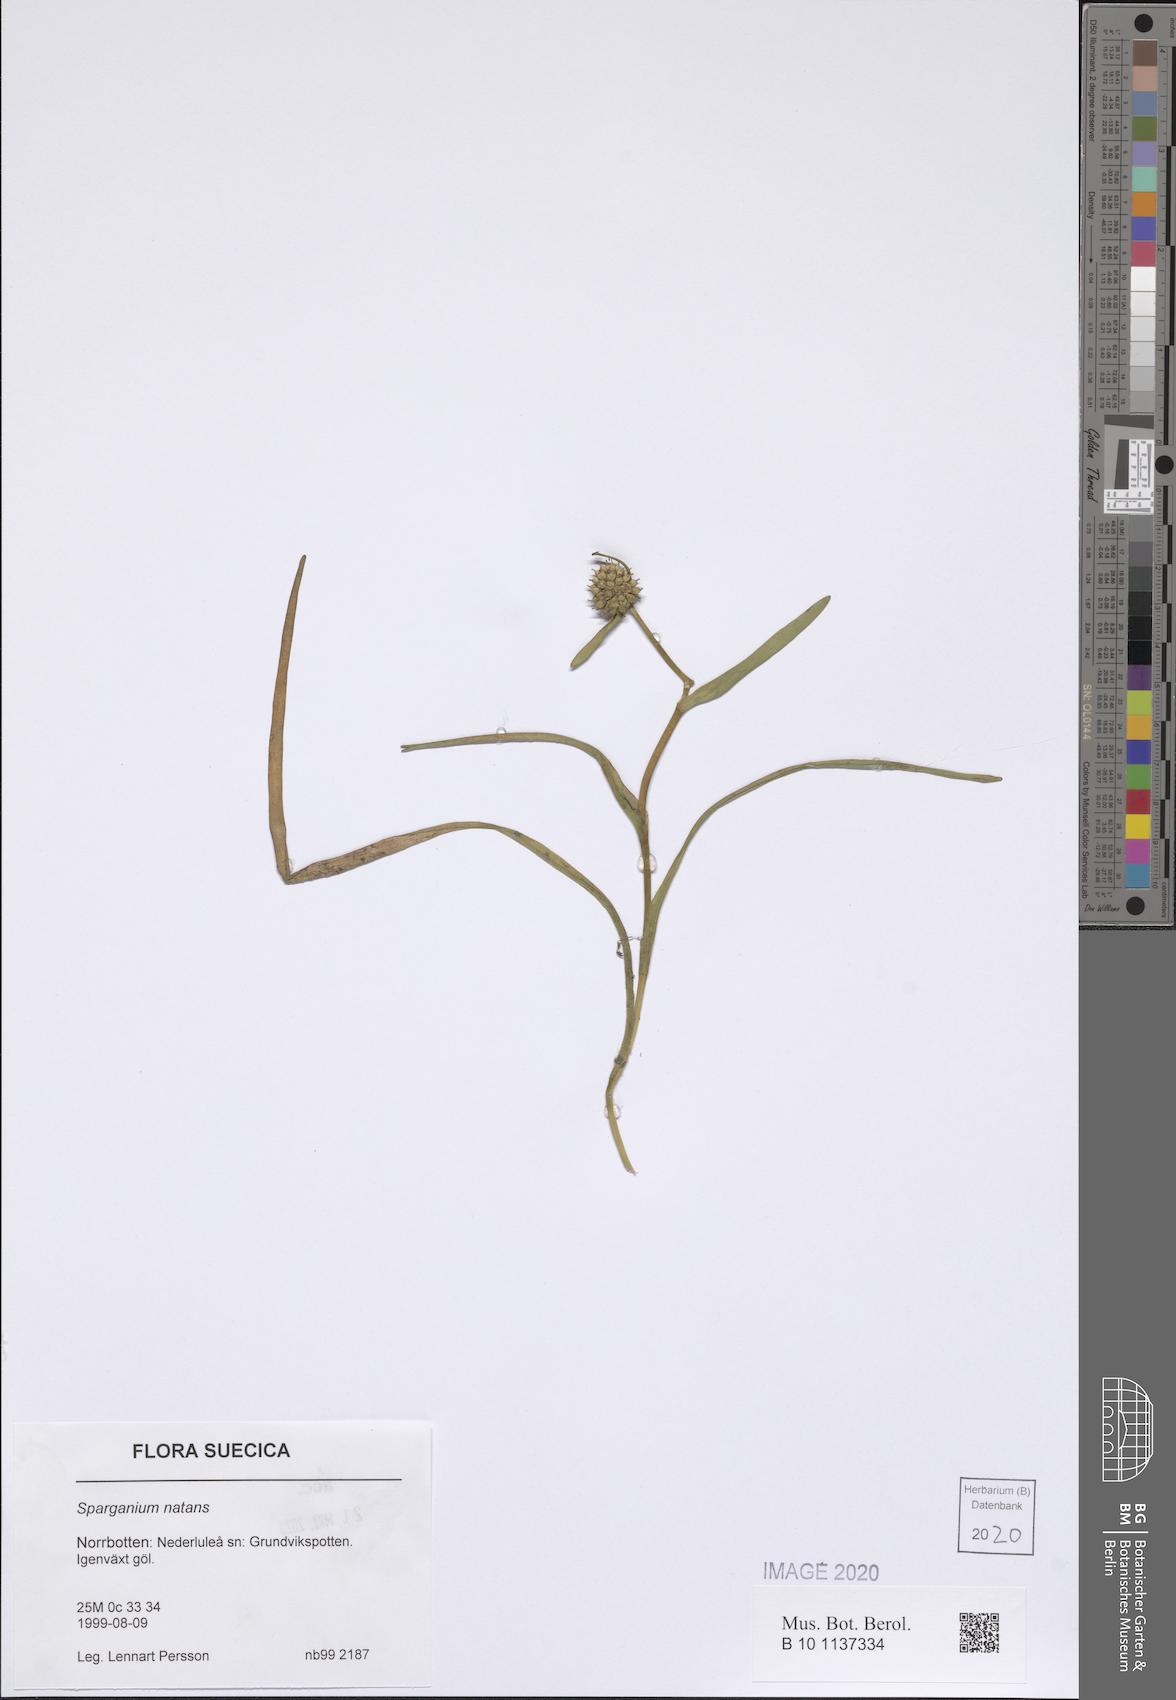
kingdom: Plantae
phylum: Tracheophyta
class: Liliopsida
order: Poales
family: Typhaceae
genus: Sparganium
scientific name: Sparganium natans
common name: Least bur-reed
